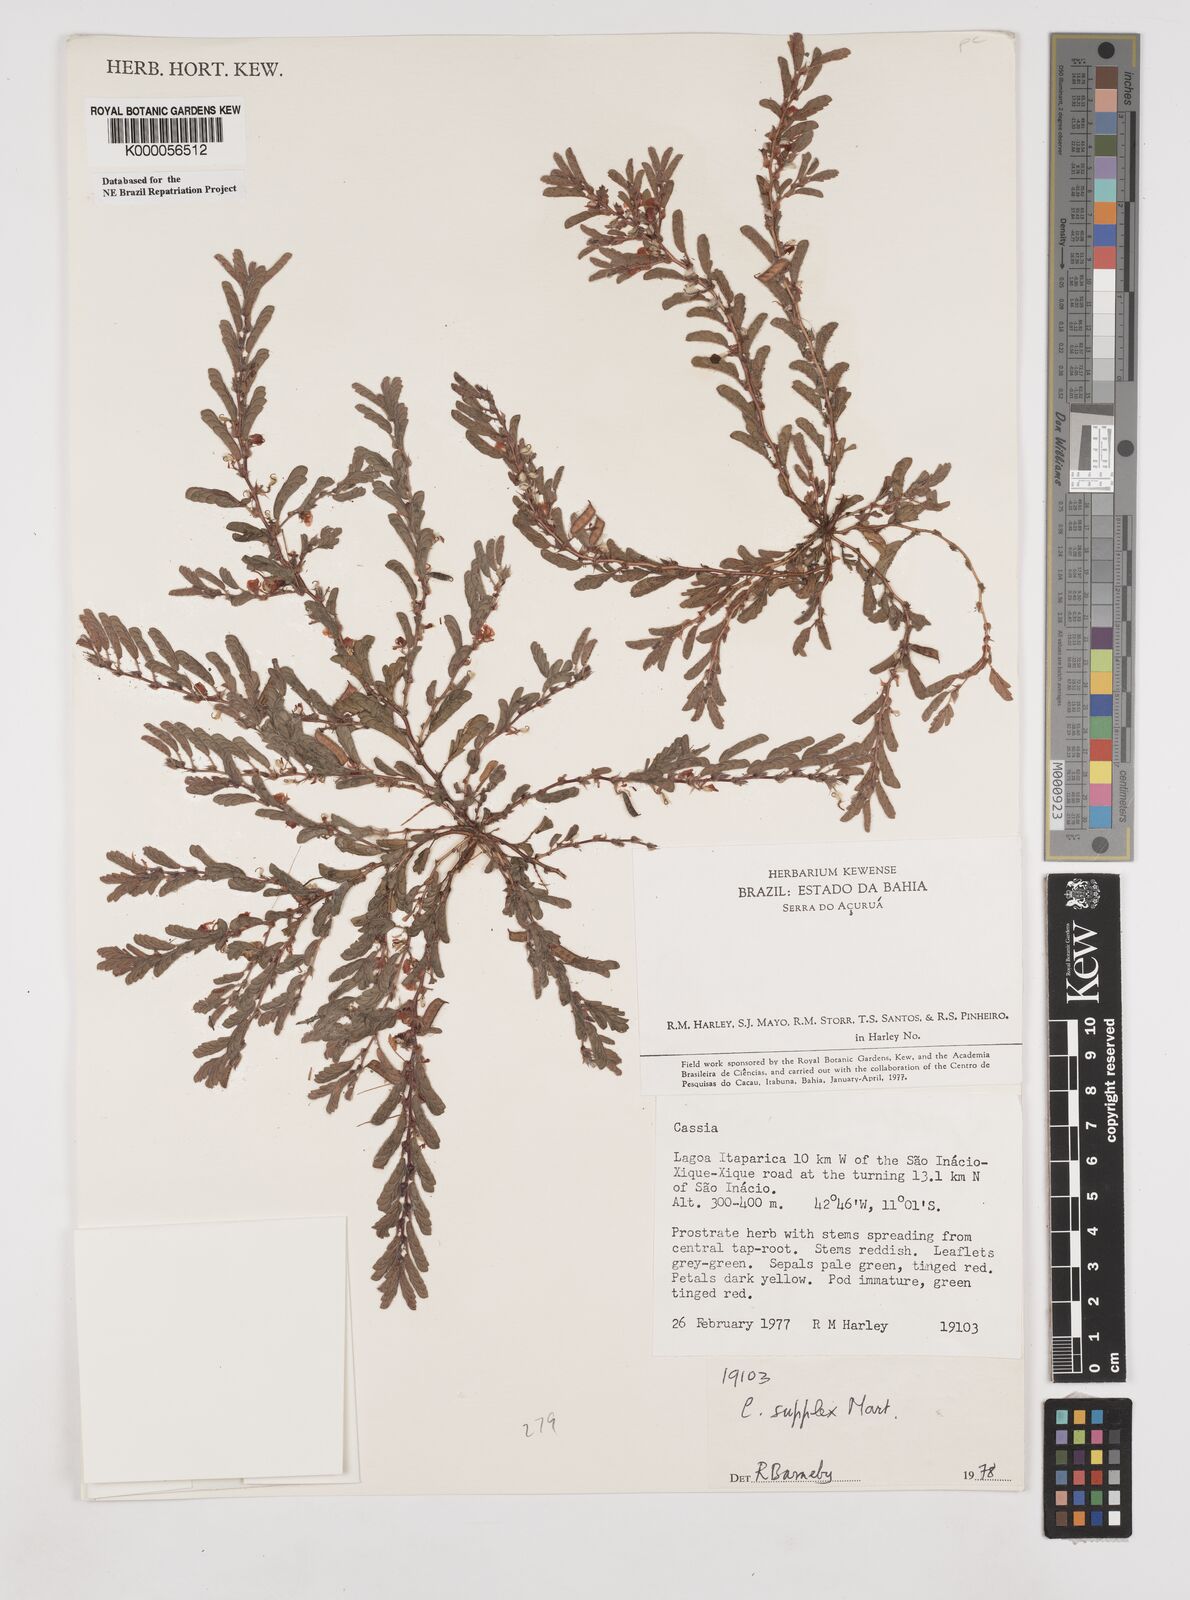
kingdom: Plantae
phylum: Tracheophyta
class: Magnoliopsida
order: Fabales
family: Fabaceae
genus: Chamaecrista
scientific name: Chamaecrista supplex
